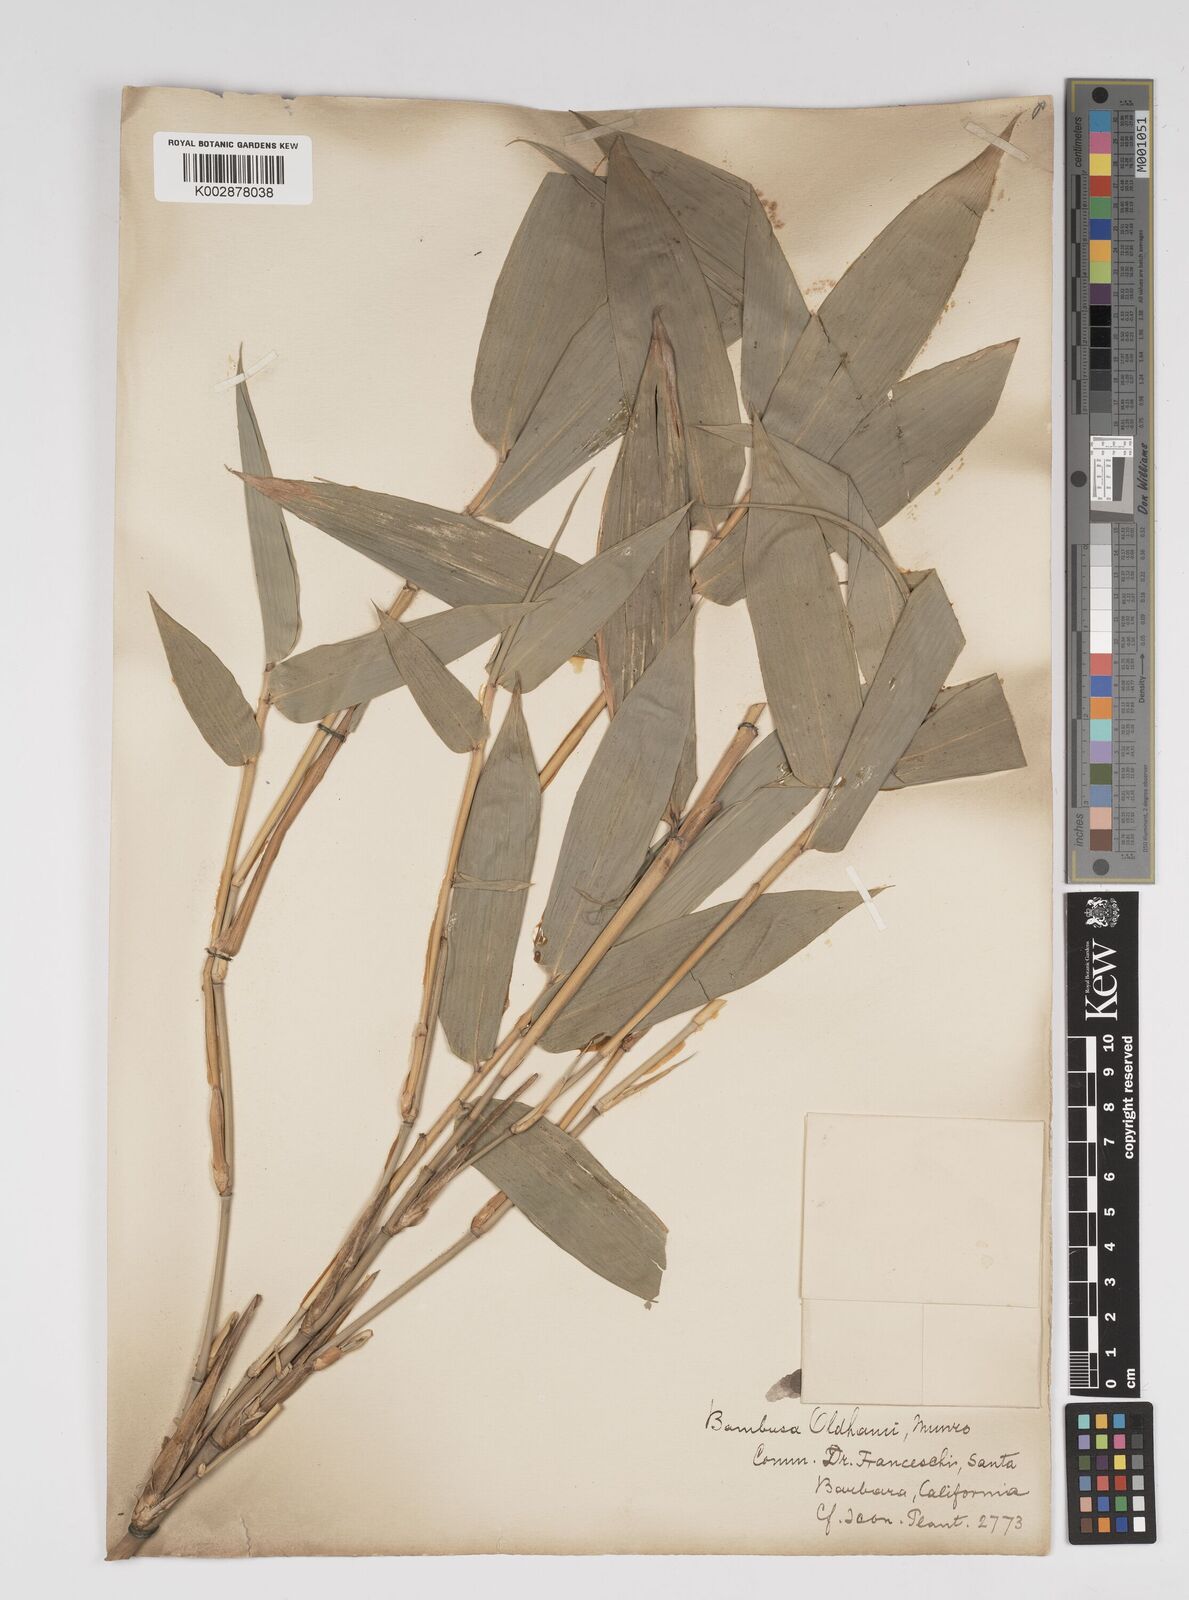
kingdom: Plantae
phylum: Tracheophyta
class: Liliopsida
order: Poales
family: Poaceae
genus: Bambusa
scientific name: Bambusa oldhamii
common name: Giant timber bamboo
